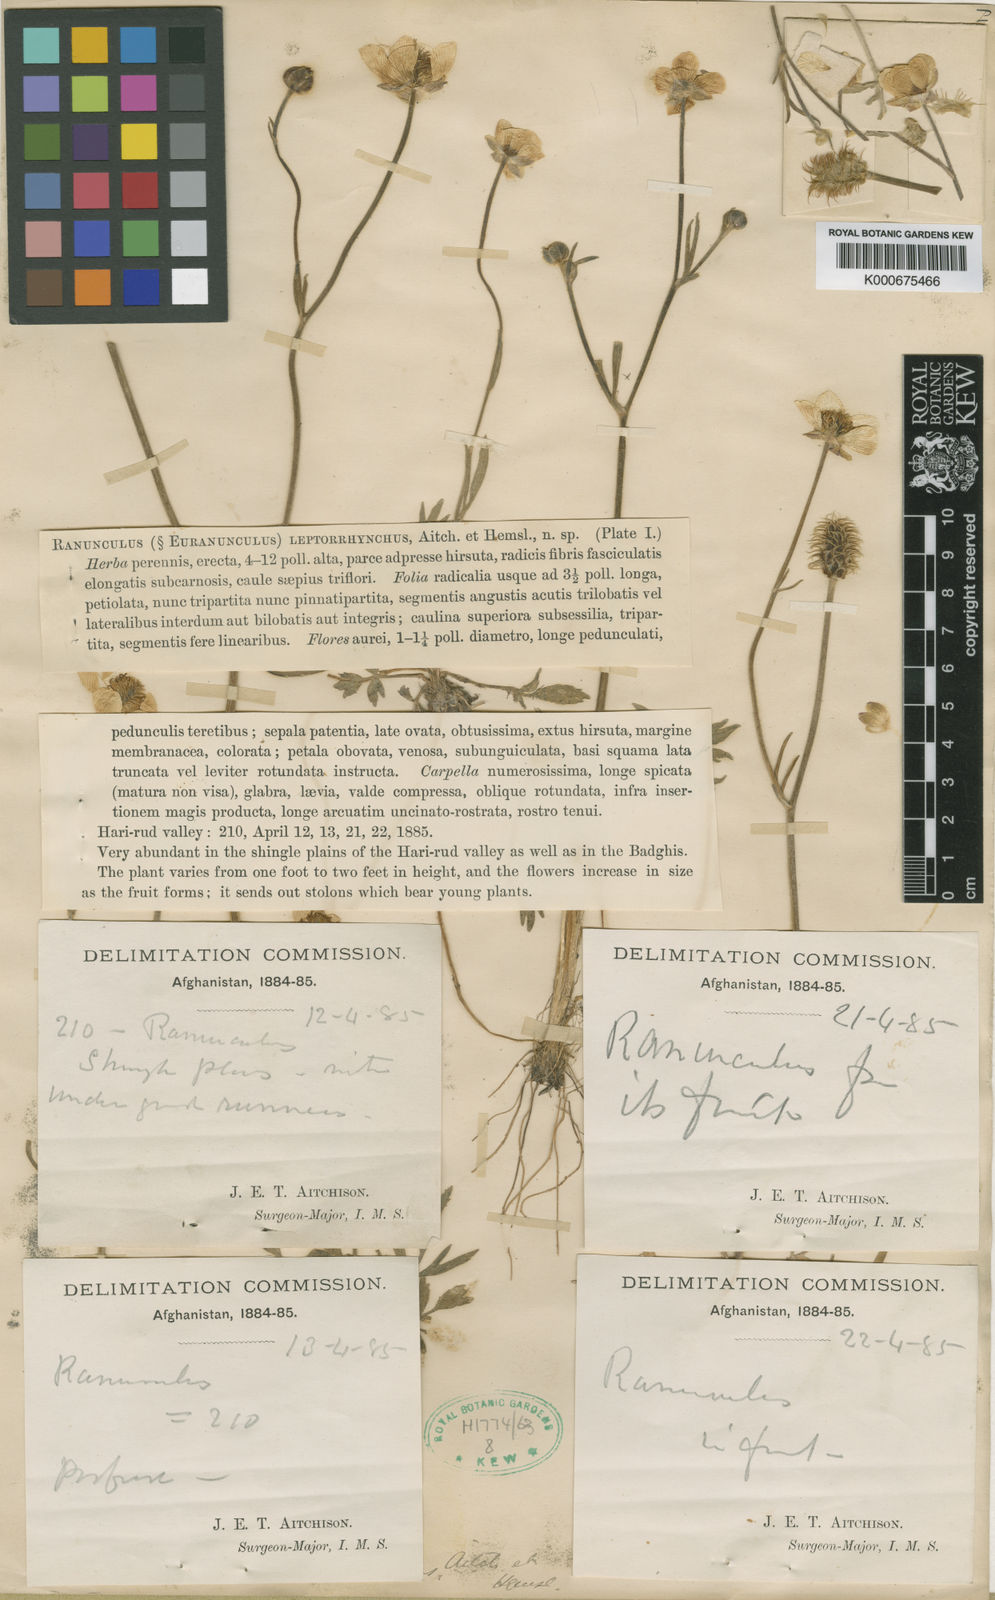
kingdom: Plantae
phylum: Tracheophyta
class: Magnoliopsida
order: Ranunculales
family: Ranunculaceae
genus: Ranunculus
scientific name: Ranunculus leptorrhynchus
